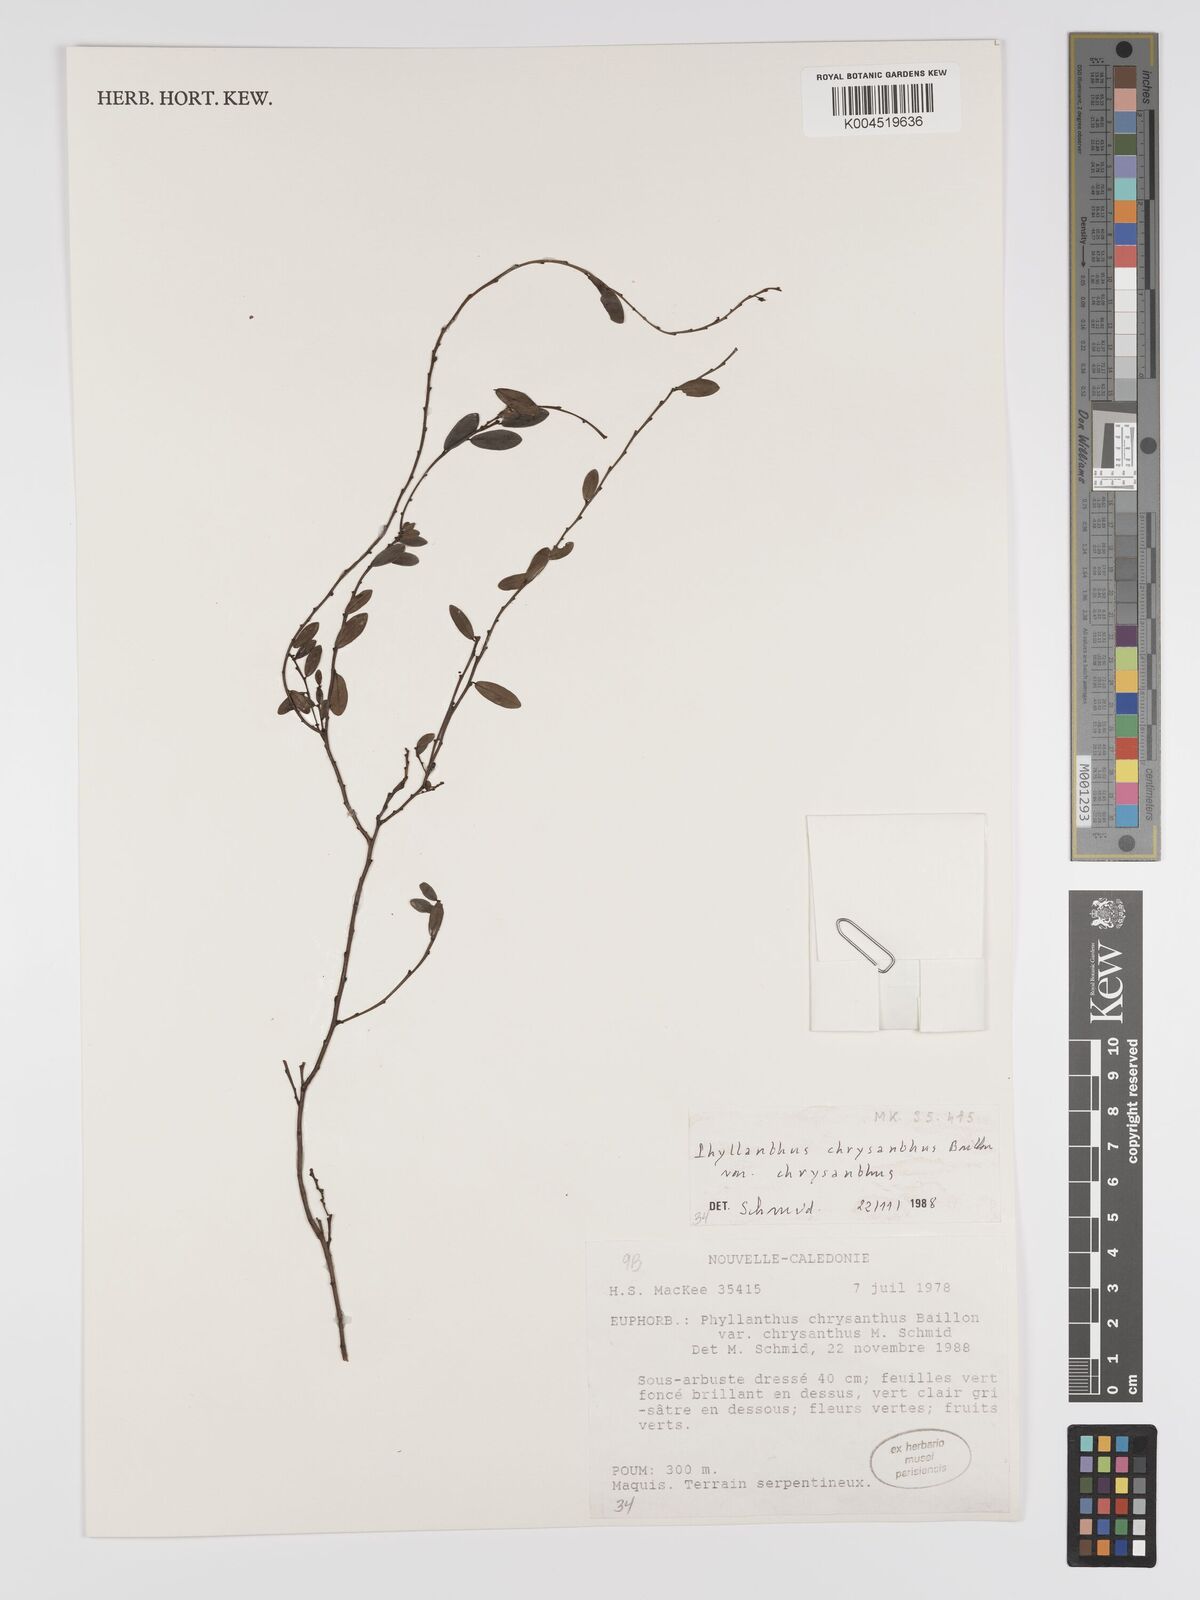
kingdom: Plantae
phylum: Tracheophyta
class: Magnoliopsida
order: Malpighiales
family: Phyllanthaceae
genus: Phyllanthus
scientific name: Phyllanthus chrysanthus
